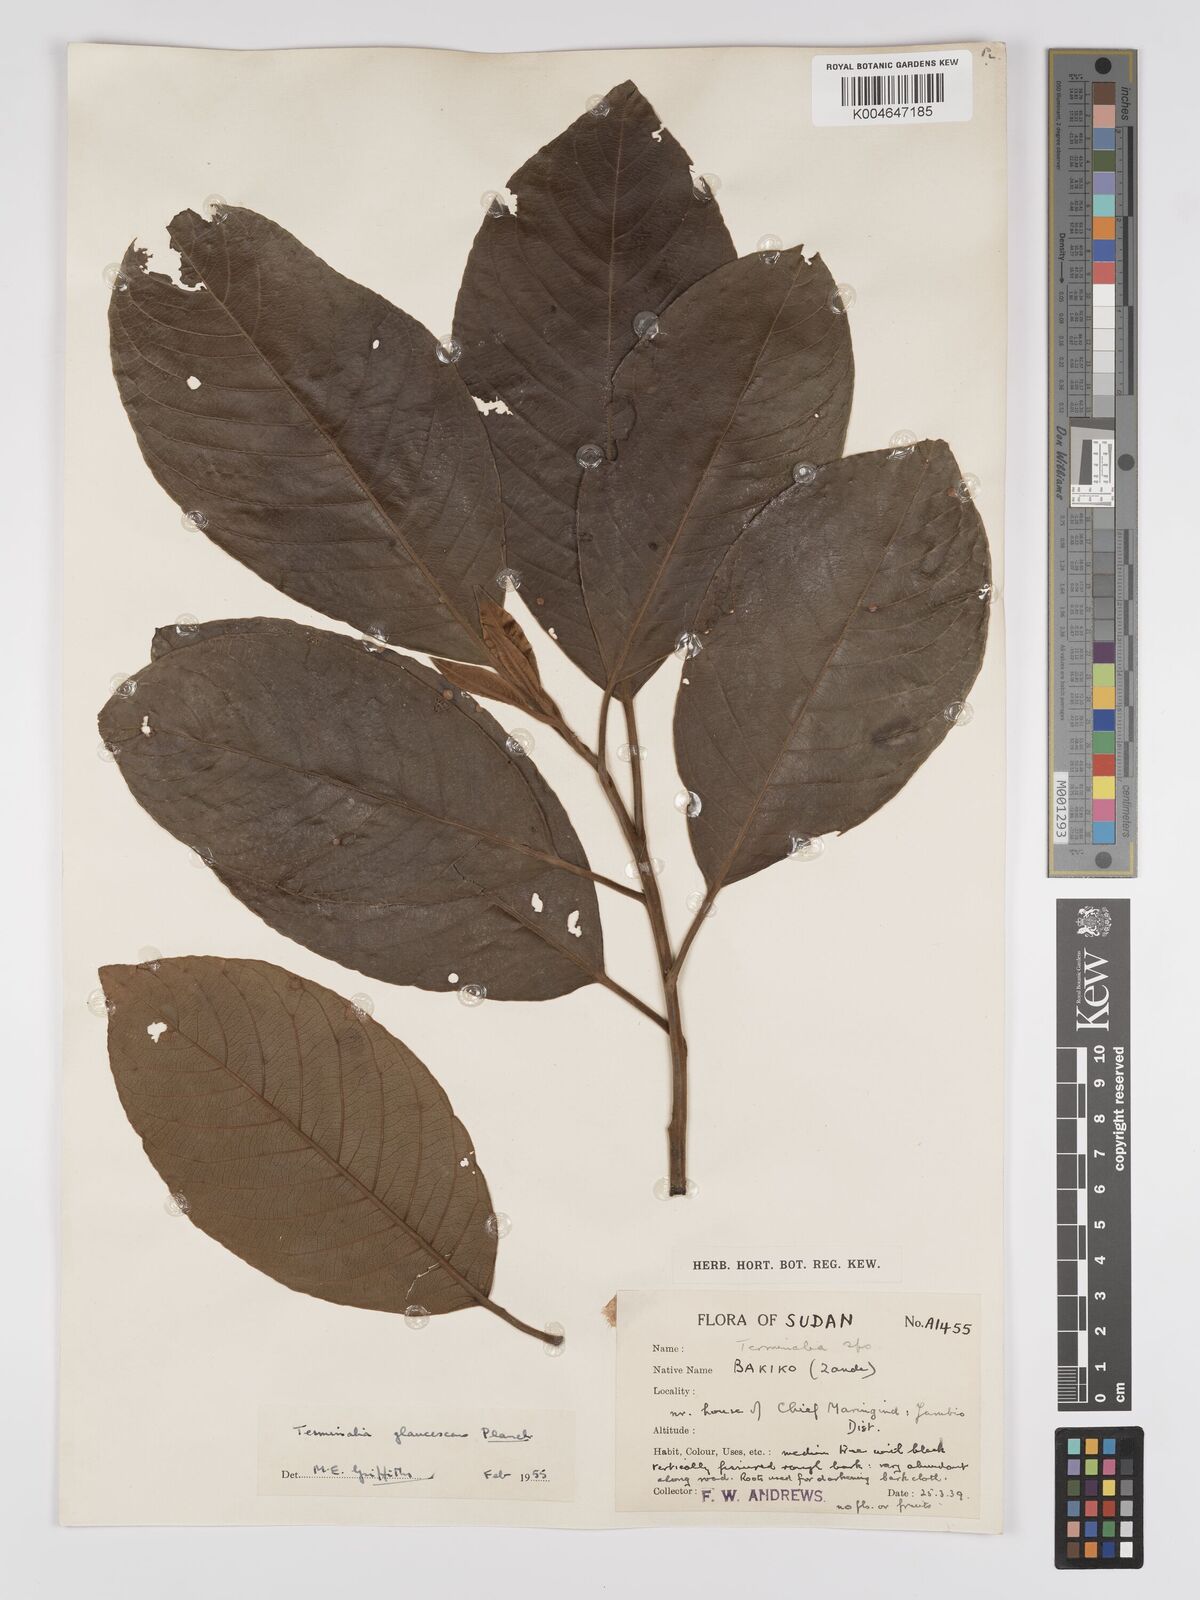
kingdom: Plantae
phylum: Tracheophyta
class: Magnoliopsida
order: Myrtales
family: Combretaceae
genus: Terminalia
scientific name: Terminalia schimperiana
